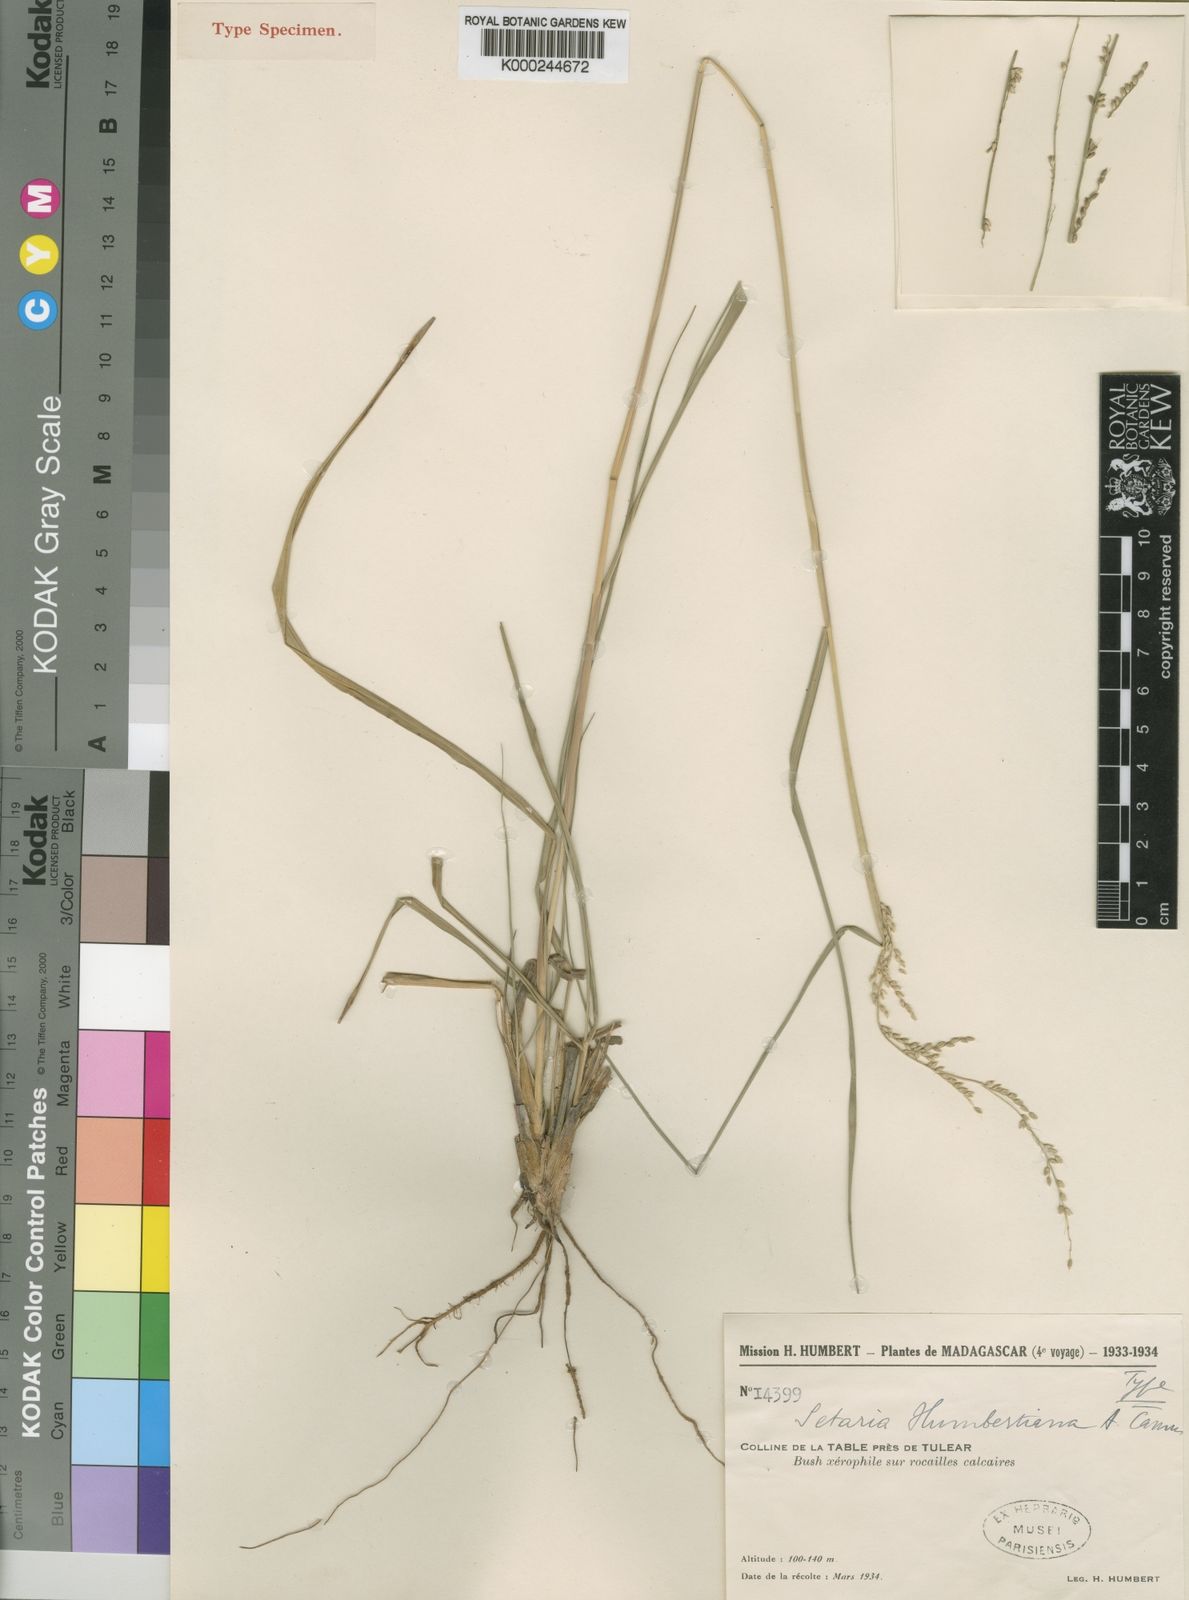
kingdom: Plantae
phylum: Tracheophyta
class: Liliopsida
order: Poales
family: Poaceae
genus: Setaria
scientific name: Setaria humbertiana
